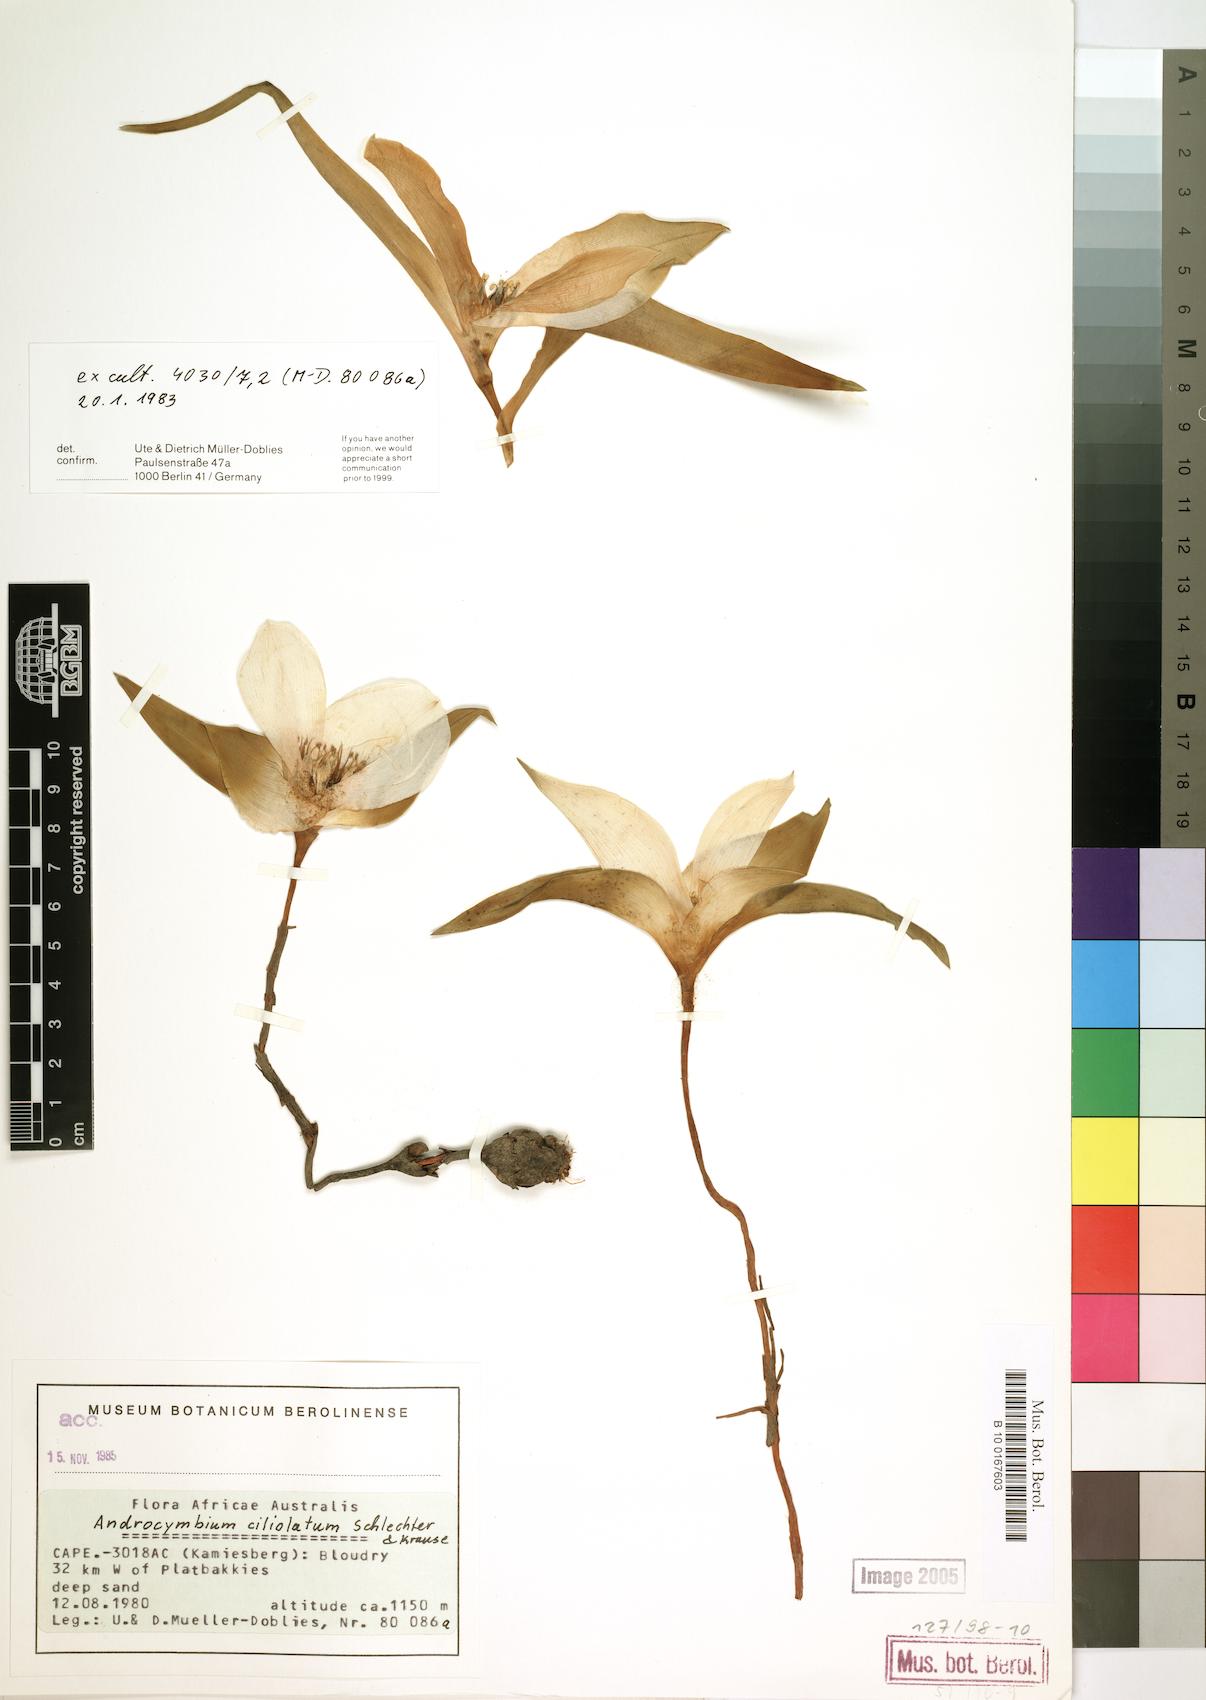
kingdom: Plantae
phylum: Tracheophyta
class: Liliopsida
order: Liliales
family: Colchicaceae
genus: Colchicum
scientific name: Colchicum capense
